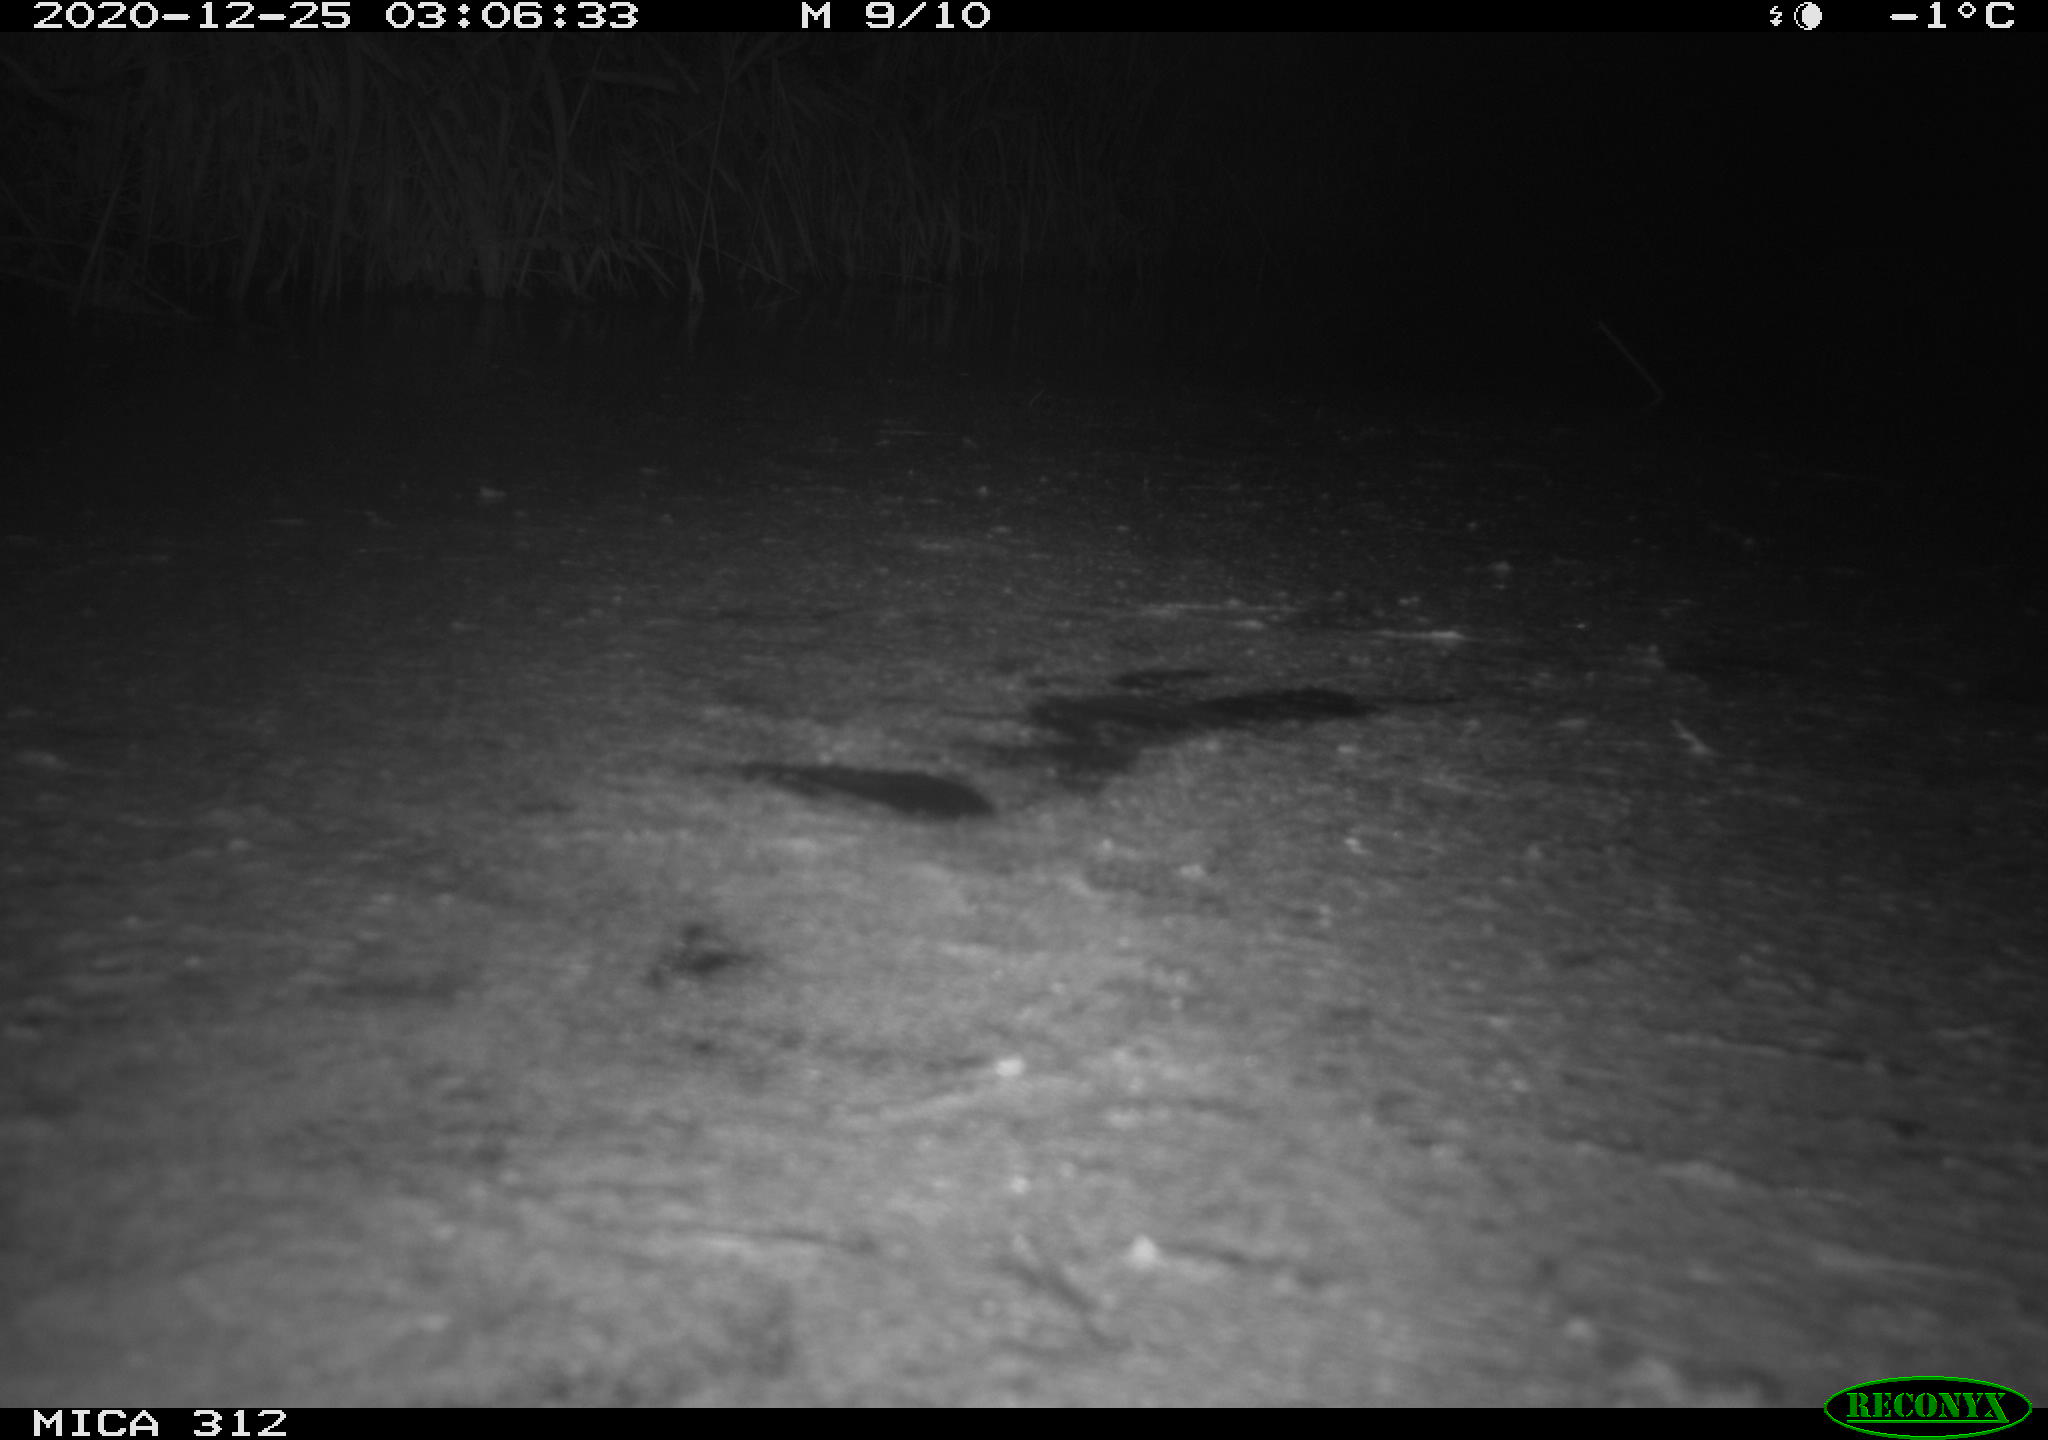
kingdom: Animalia
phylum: Chordata
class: Mammalia
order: Rodentia
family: Muridae
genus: Rattus
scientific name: Rattus norvegicus
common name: Brown rat
